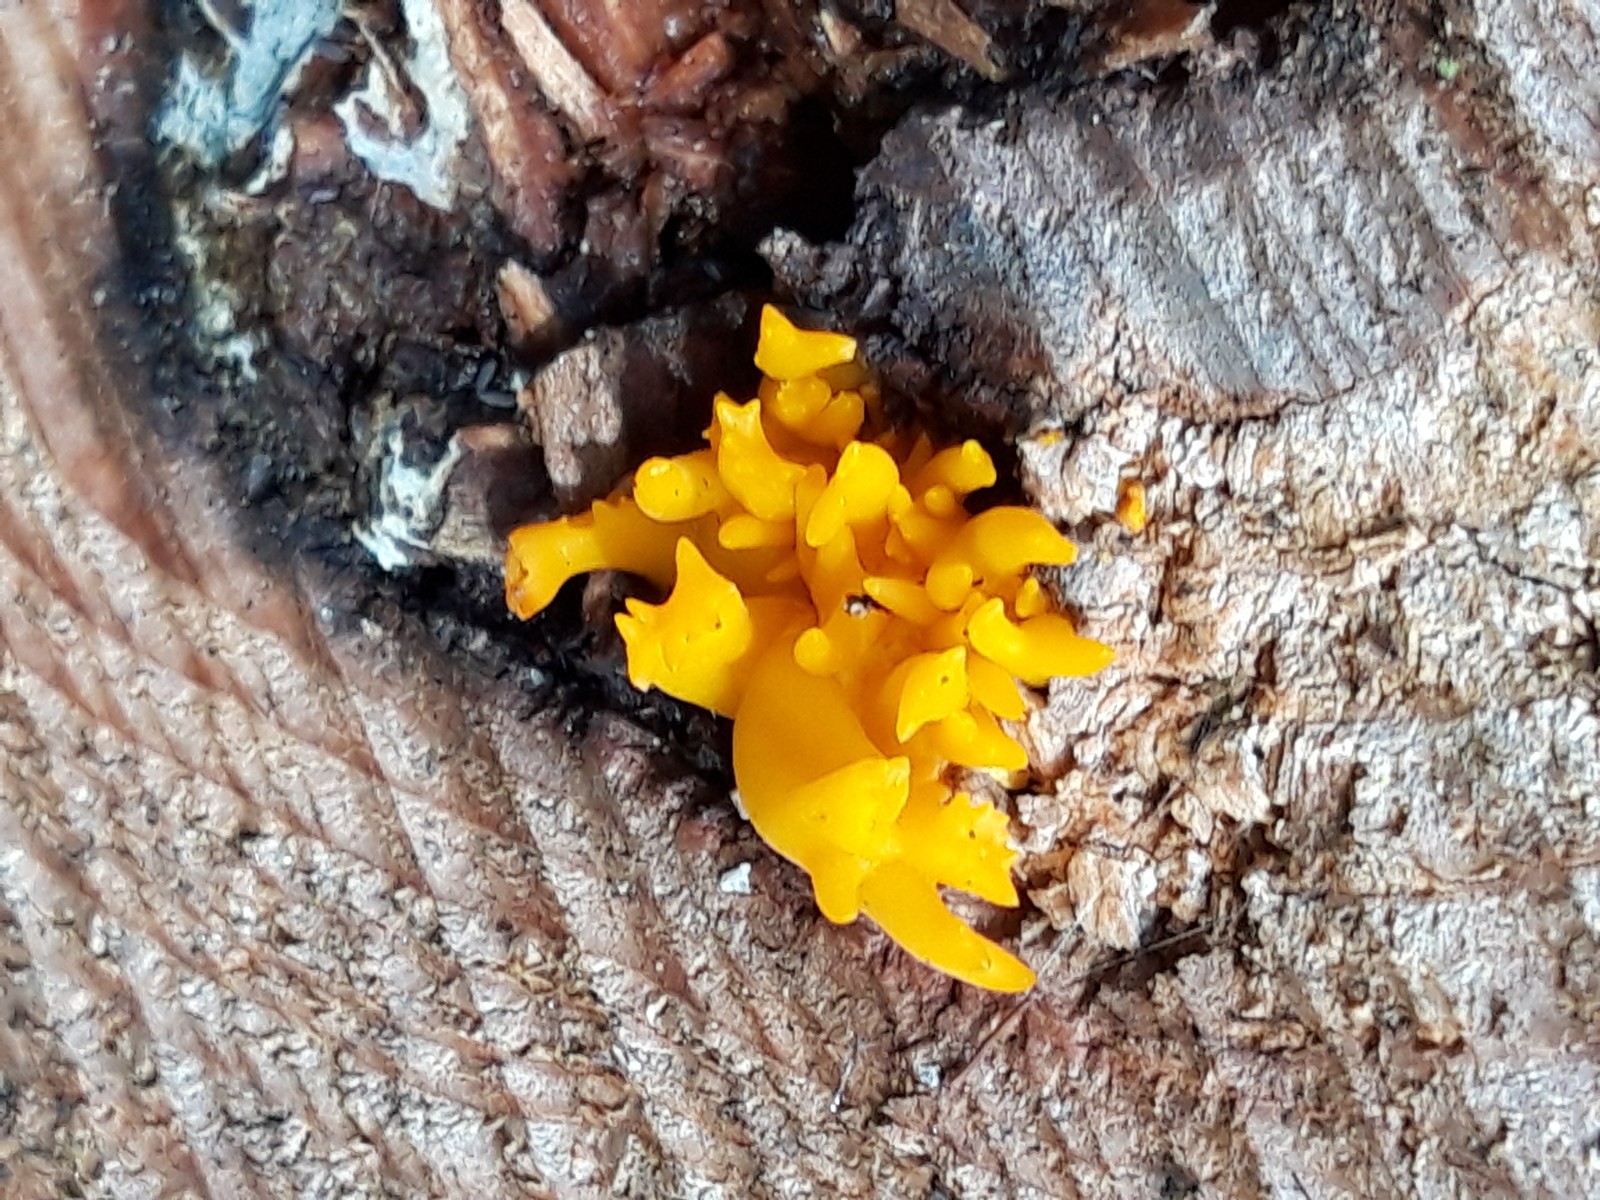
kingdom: Fungi
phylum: Basidiomycota
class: Dacrymycetes
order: Dacrymycetales
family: Dacrymycetaceae
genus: Calocera
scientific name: Calocera viscosa
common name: almindelig guldgaffel
